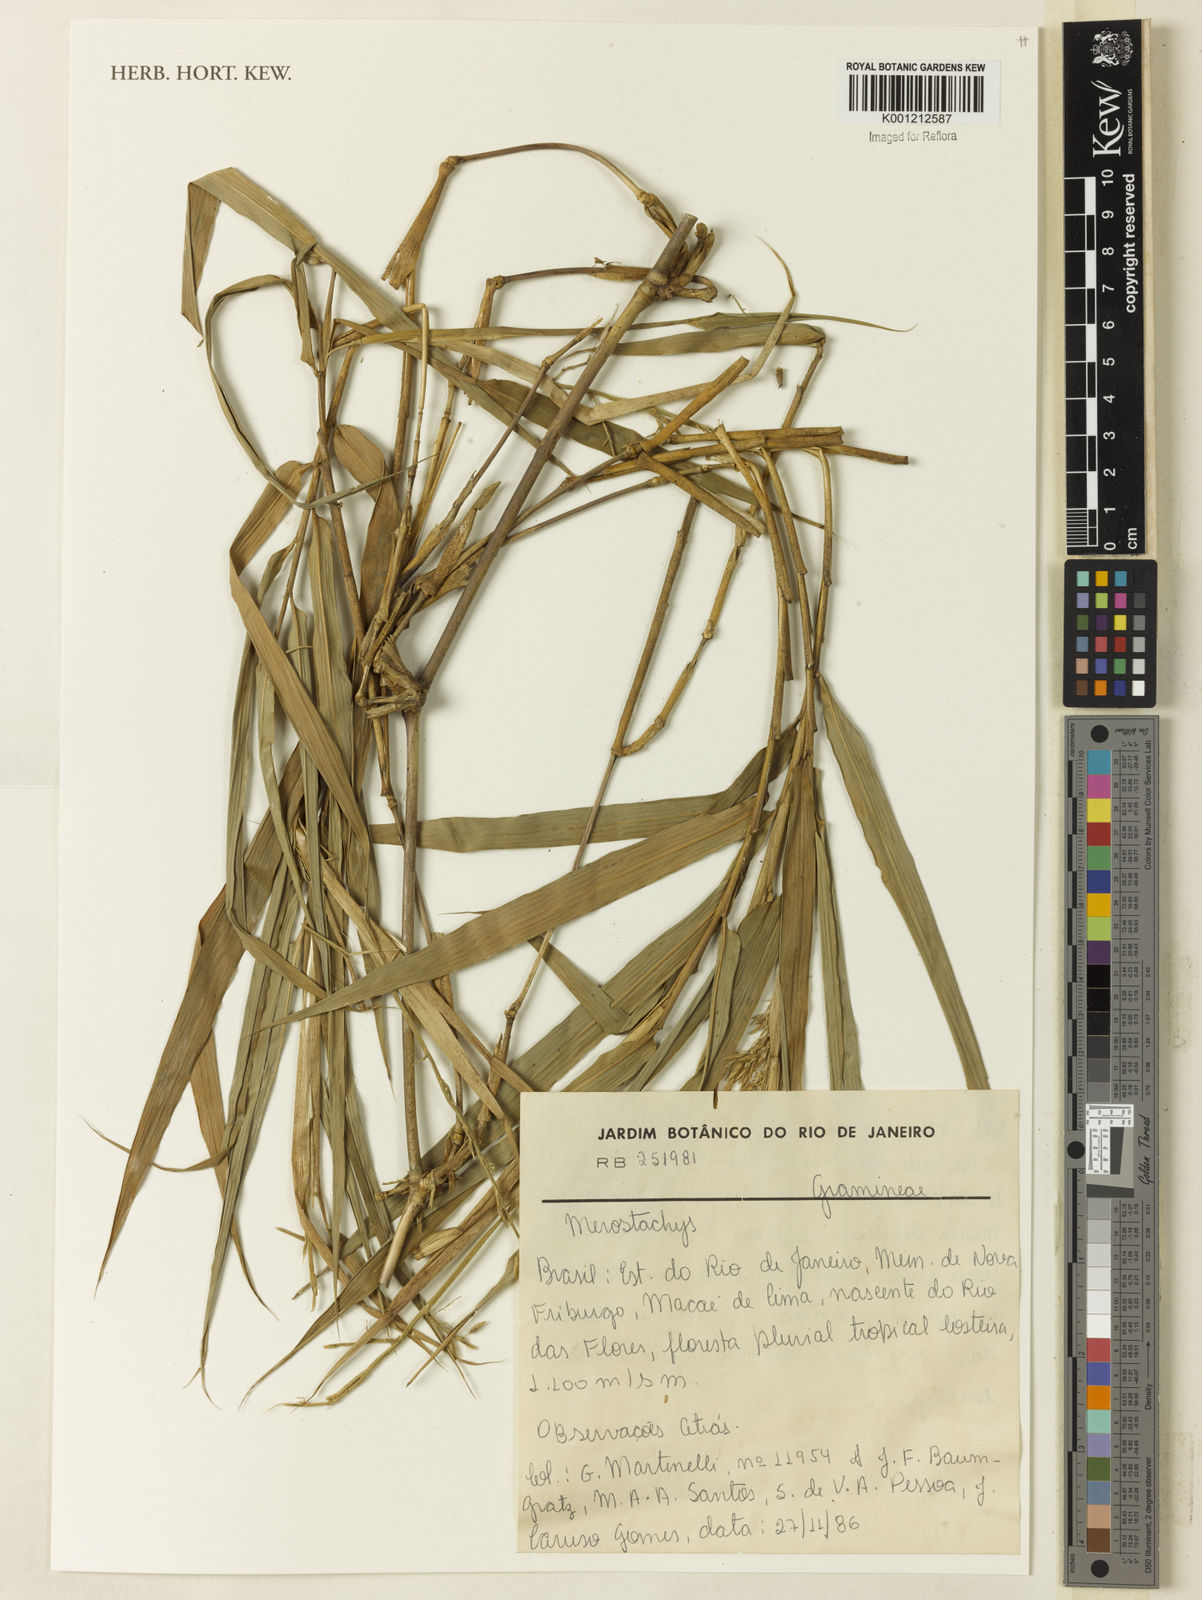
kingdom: Plantae
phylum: Tracheophyta
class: Liliopsida
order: Poales
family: Poaceae
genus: Merostachys
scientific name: Merostachys
